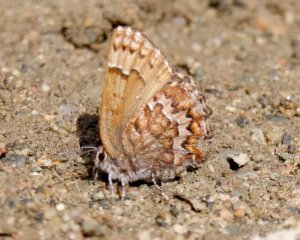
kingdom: Animalia
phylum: Arthropoda
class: Insecta
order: Lepidoptera
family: Lycaenidae
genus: Incisalia
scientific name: Incisalia niphon
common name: Eastern Pine Elfin
